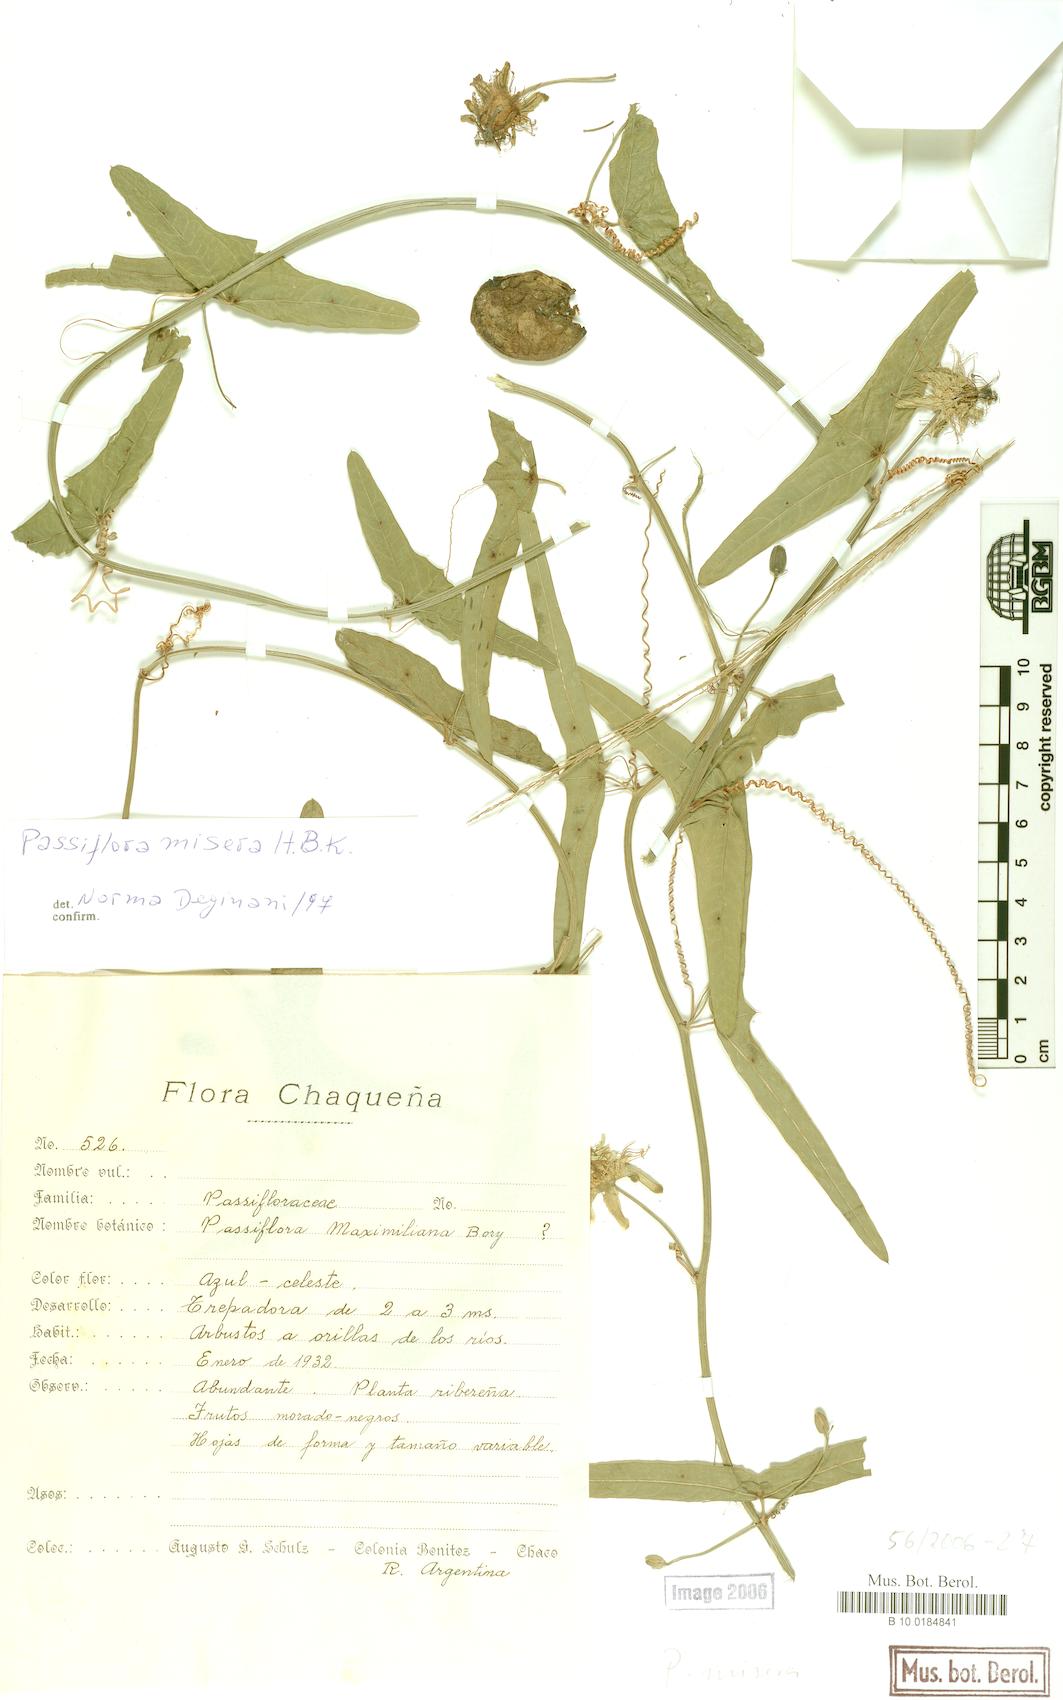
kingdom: Plantae
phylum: Tracheophyta
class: Magnoliopsida
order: Malpighiales
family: Passifloraceae
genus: Passiflora
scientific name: Passiflora misera
